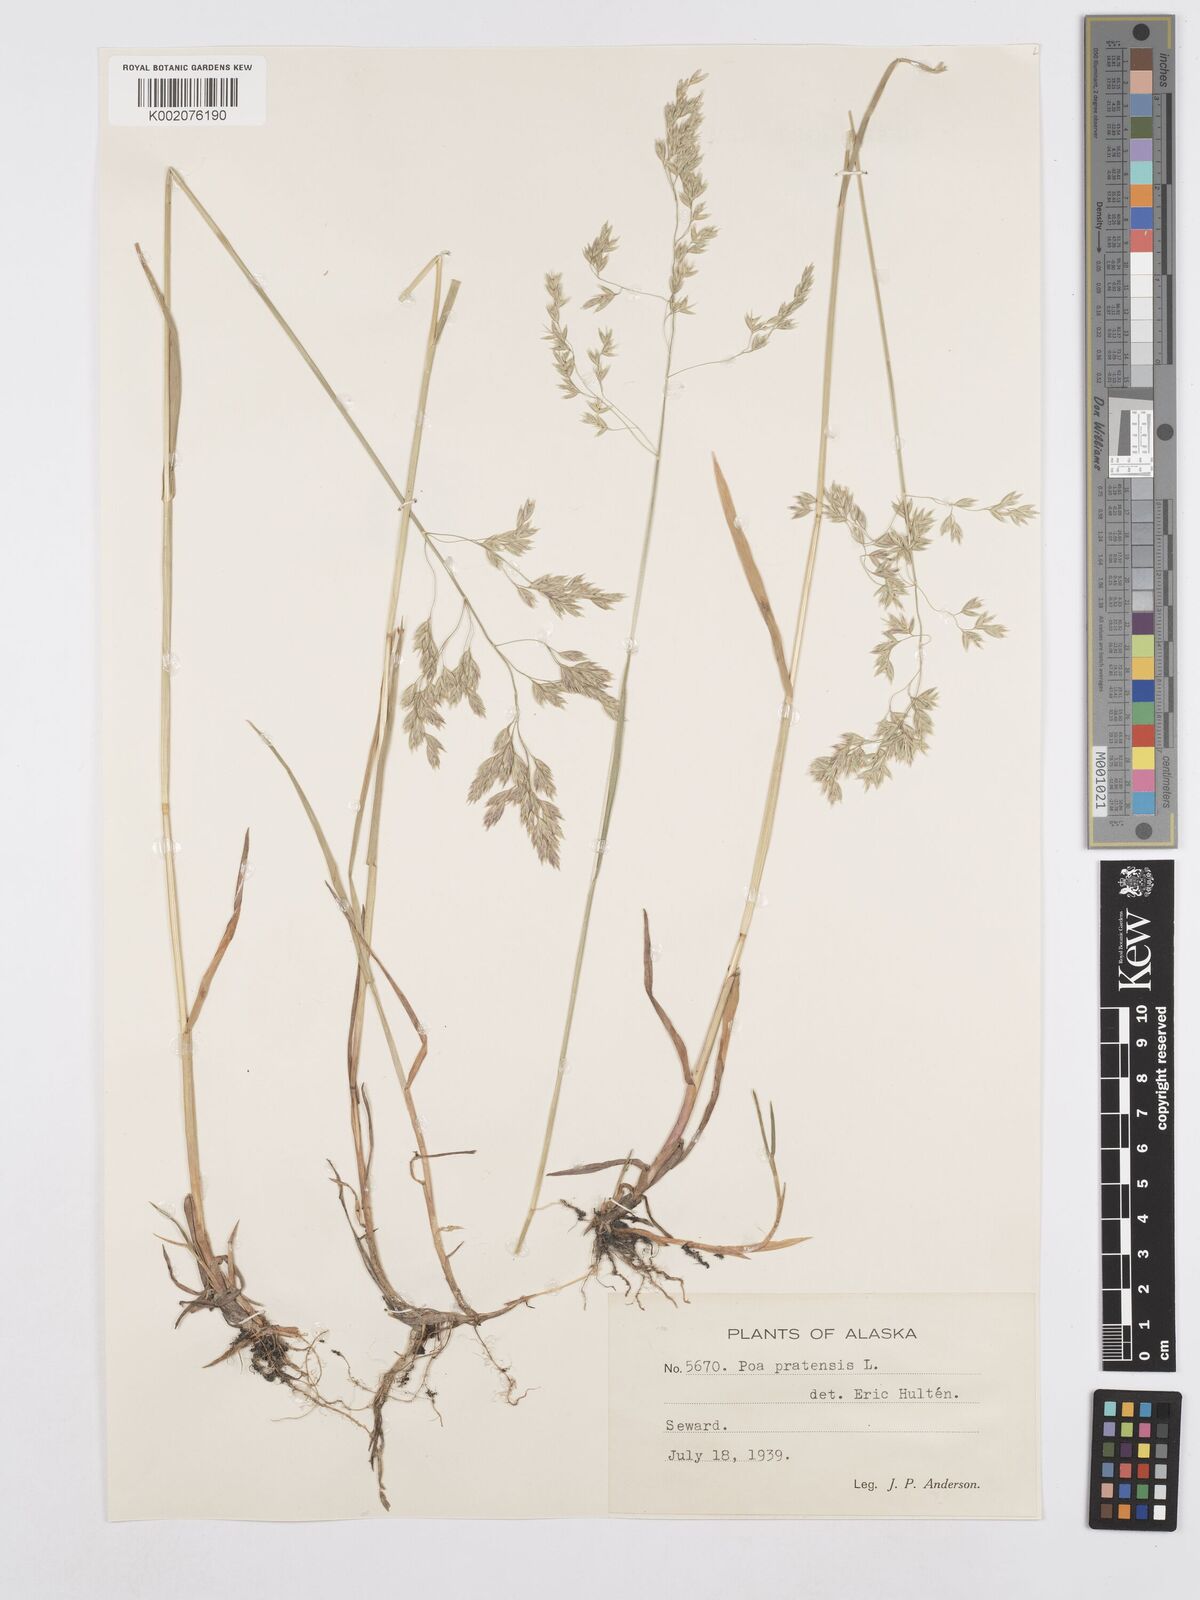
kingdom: Plantae
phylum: Tracheophyta
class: Liliopsida
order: Poales
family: Poaceae
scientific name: Poaceae
